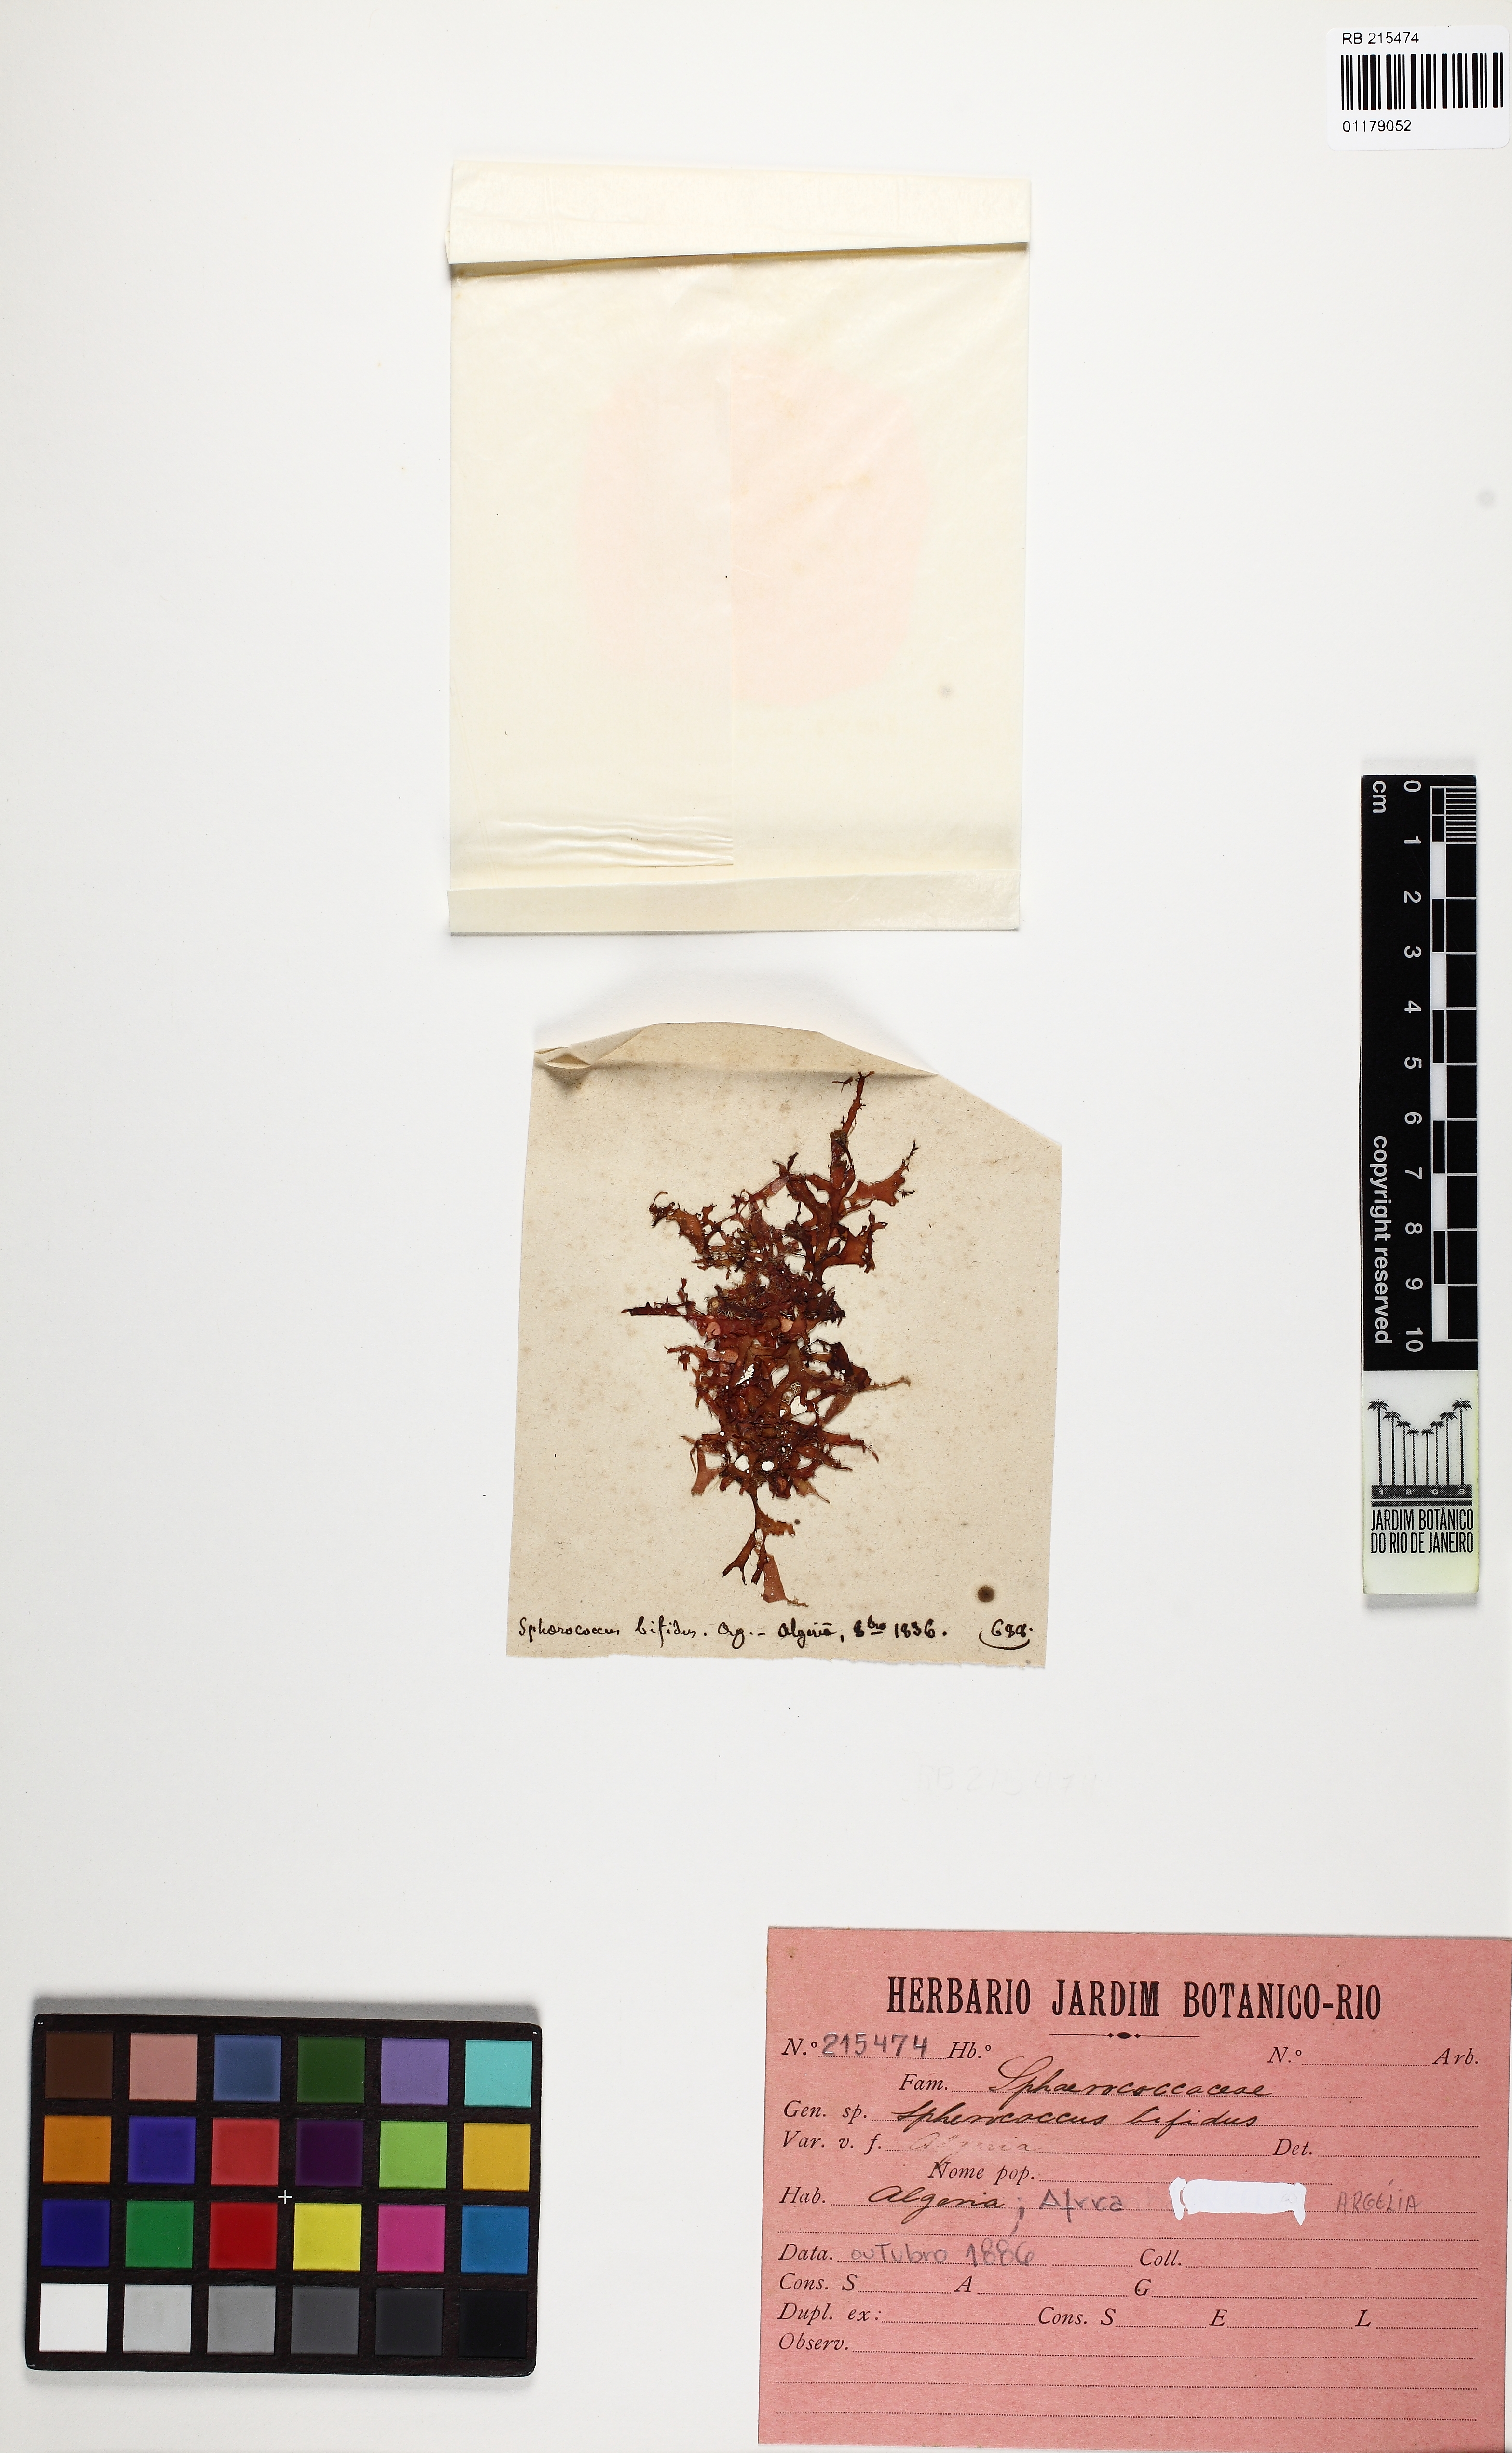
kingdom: Plantae
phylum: Rhodophyta
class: Florideophyceae
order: Gigartinales
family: Sphaerococcaceae
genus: Sphaerococcus
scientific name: Sphaerococcus
